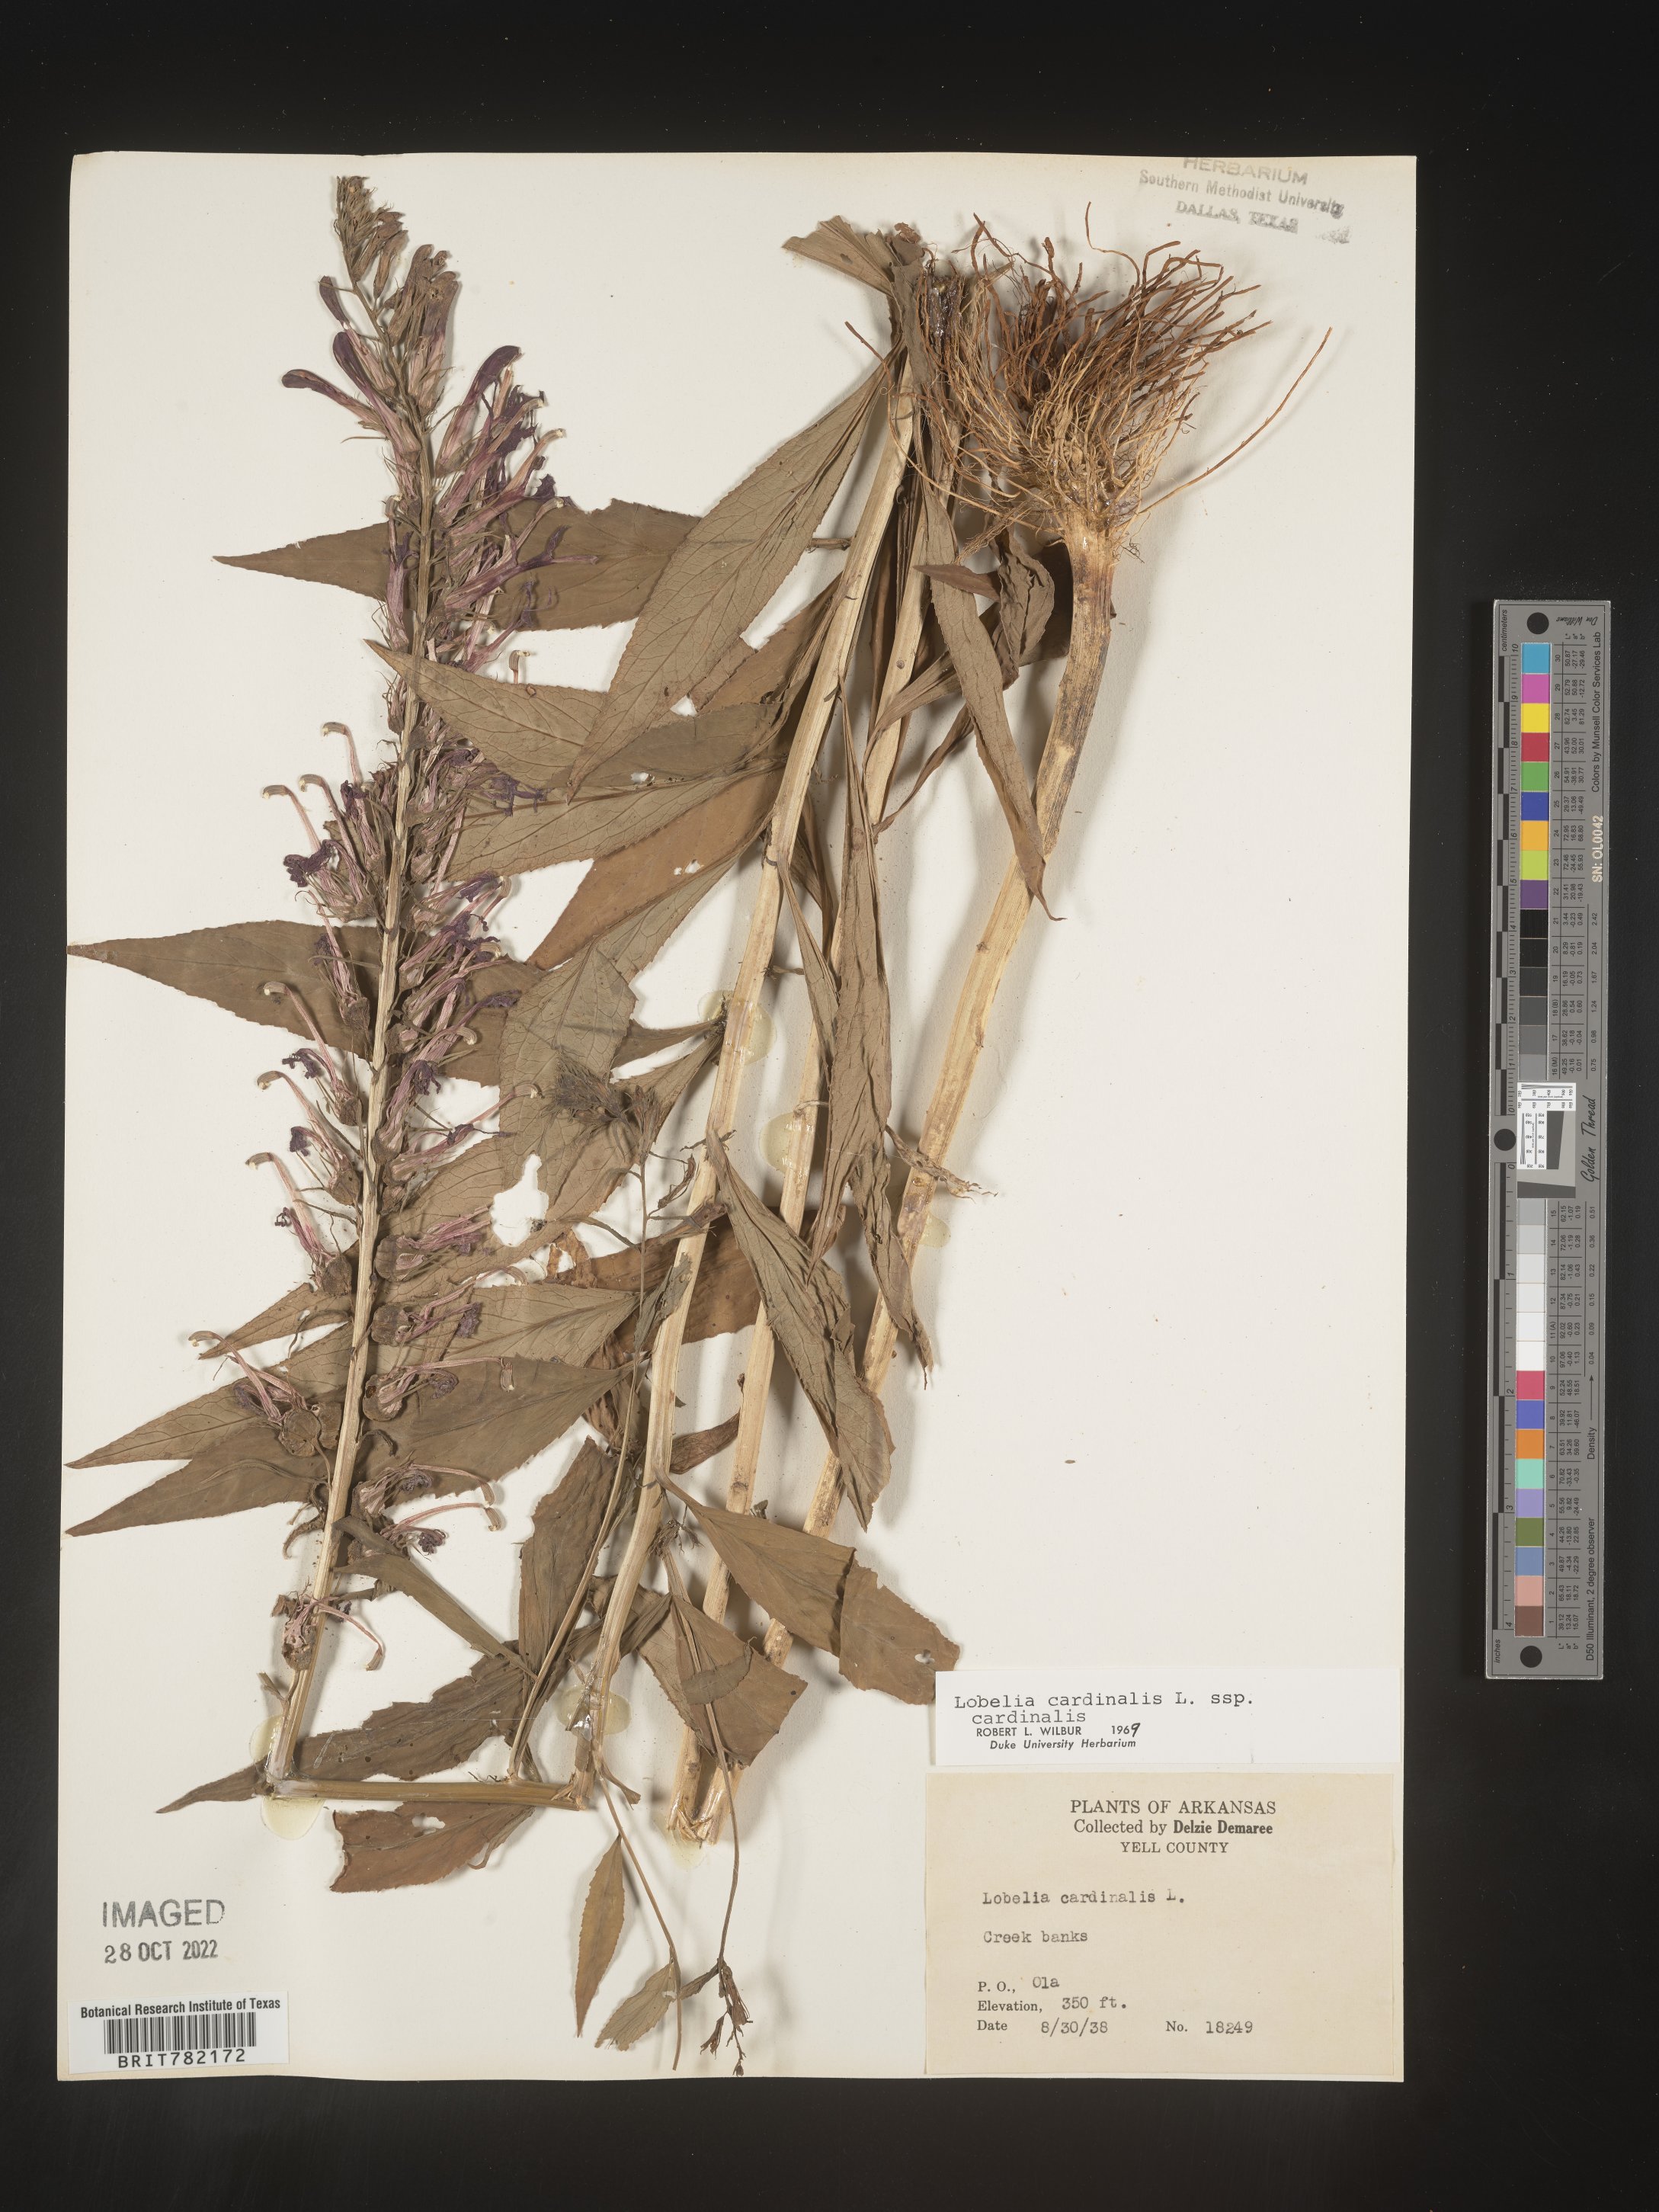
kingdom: Plantae
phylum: Tracheophyta
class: Magnoliopsida
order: Asterales
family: Campanulaceae
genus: Lobelia
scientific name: Lobelia cardinalis
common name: Cardinal flower
